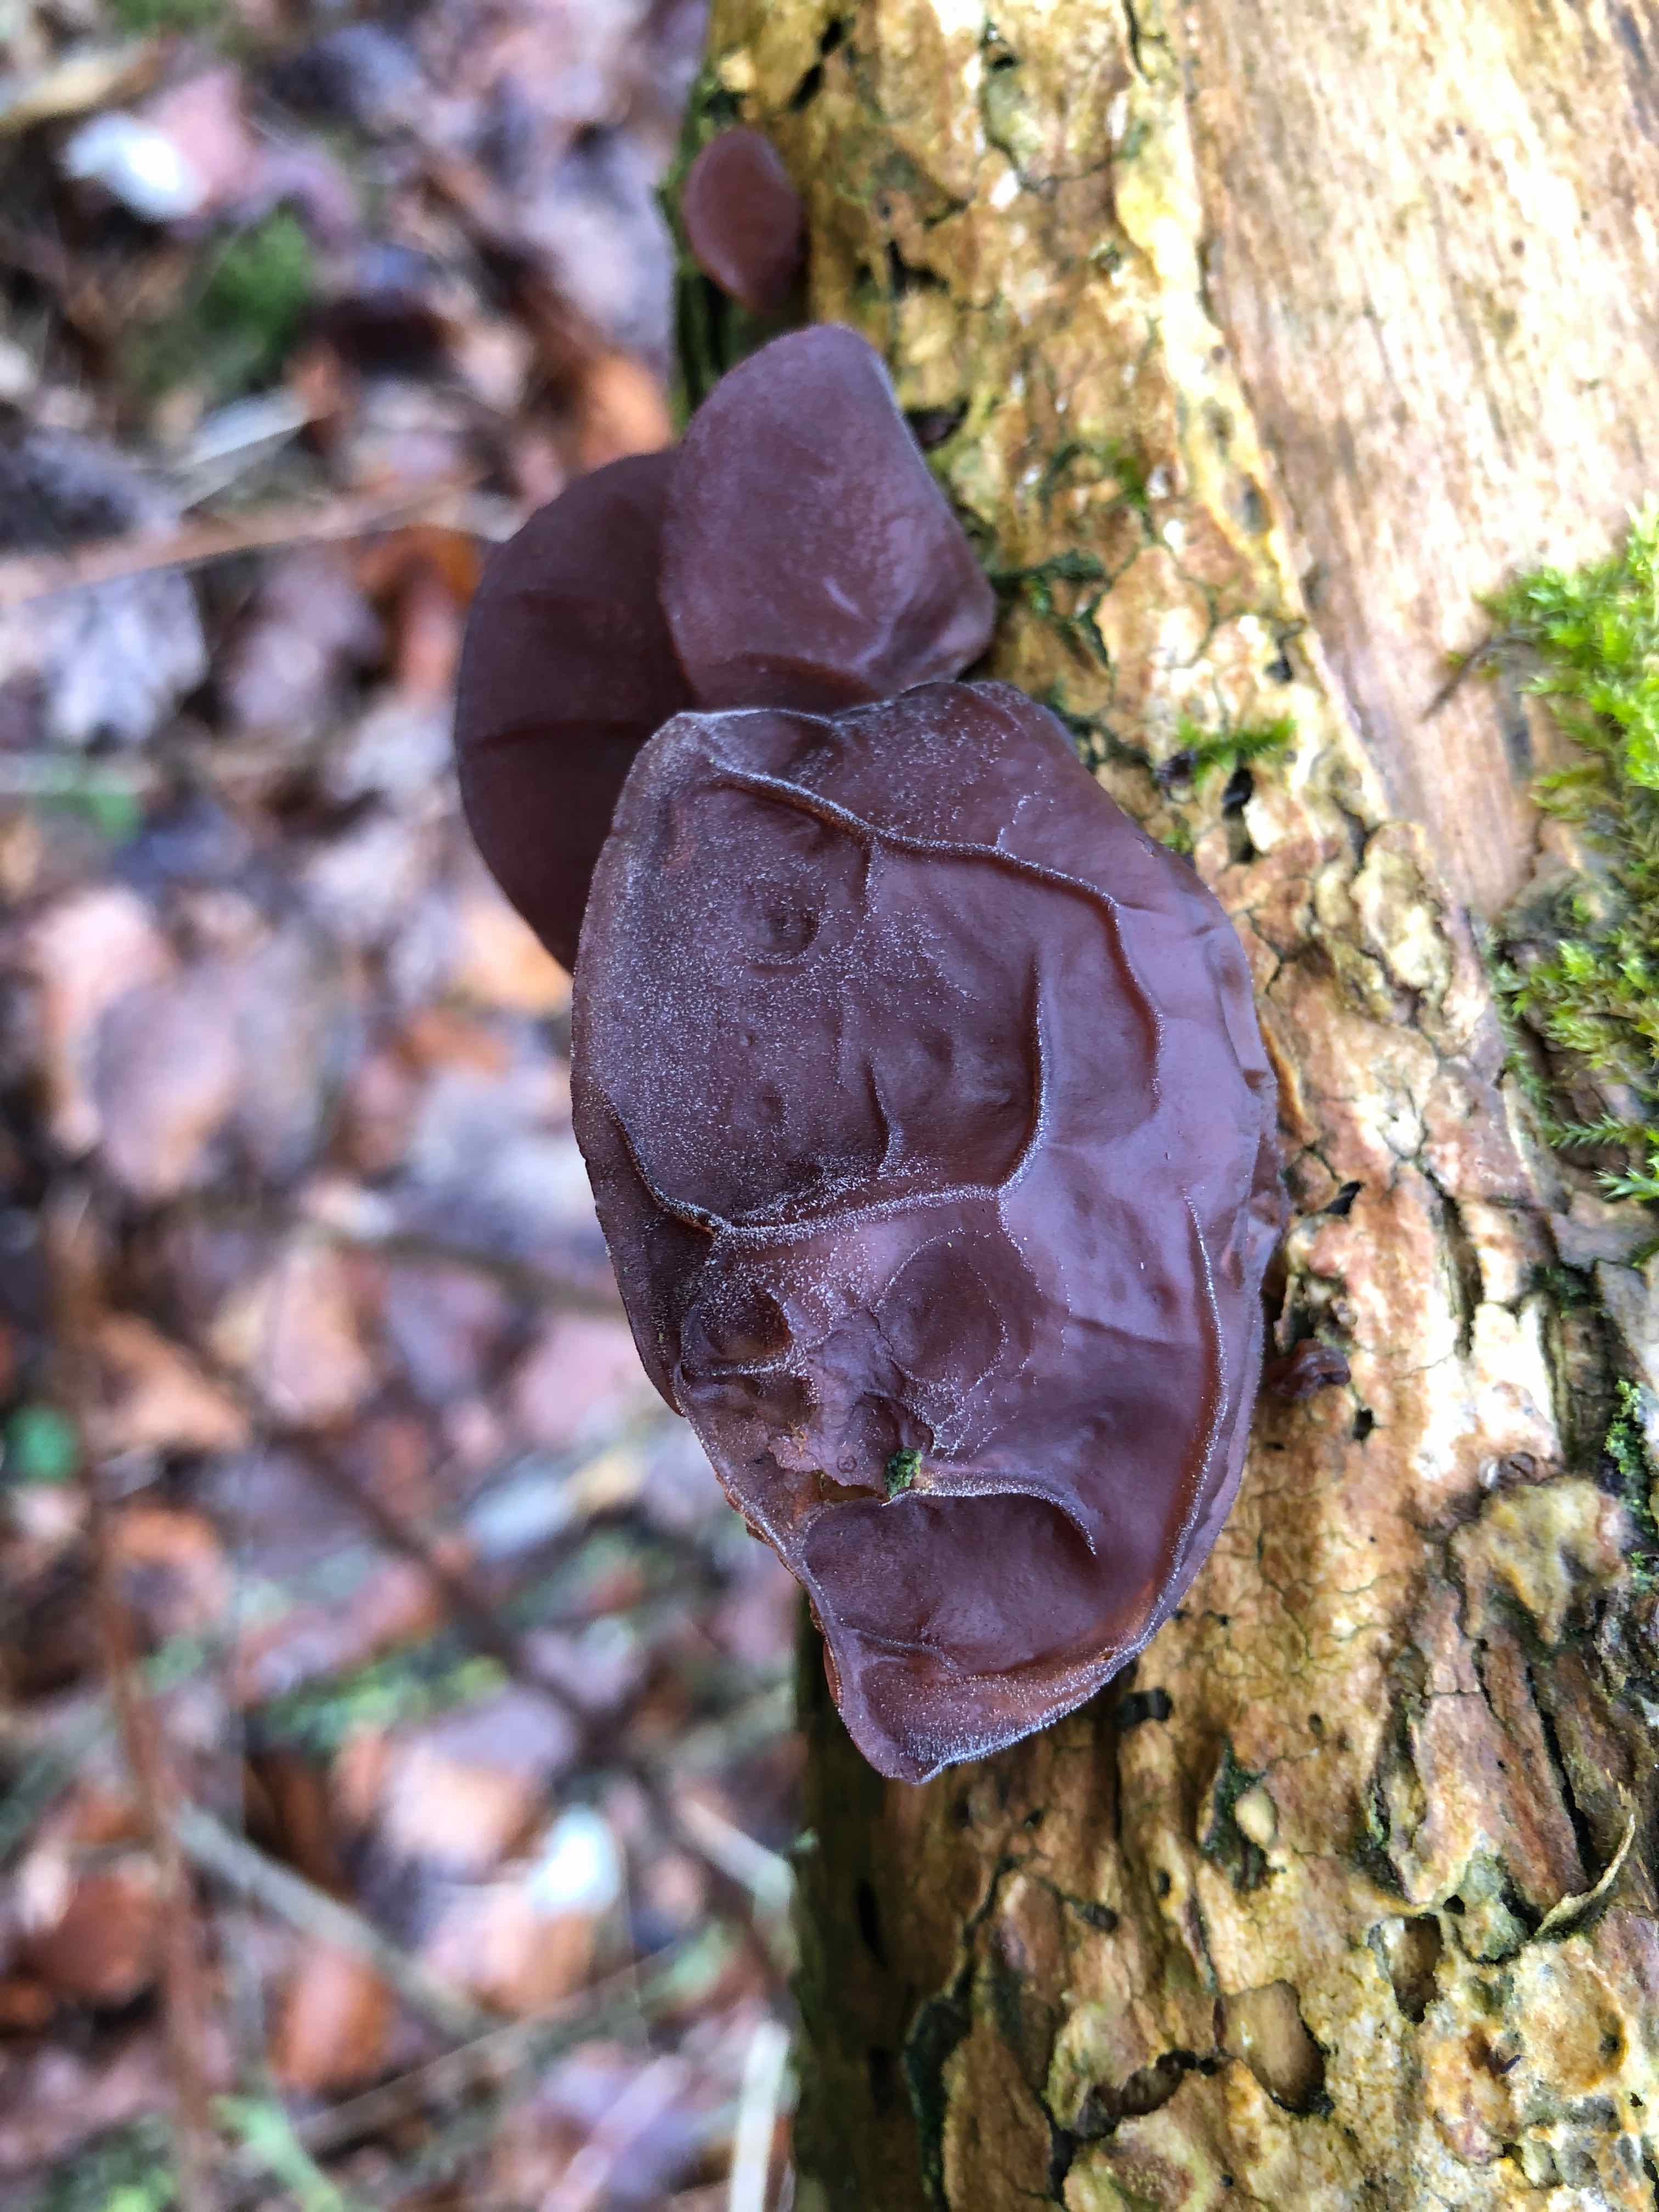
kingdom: Fungi
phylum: Basidiomycota
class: Agaricomycetes
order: Auriculariales
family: Auriculariaceae
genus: Auricularia
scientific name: Auricularia auricula-judae
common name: almindelig judasøre
